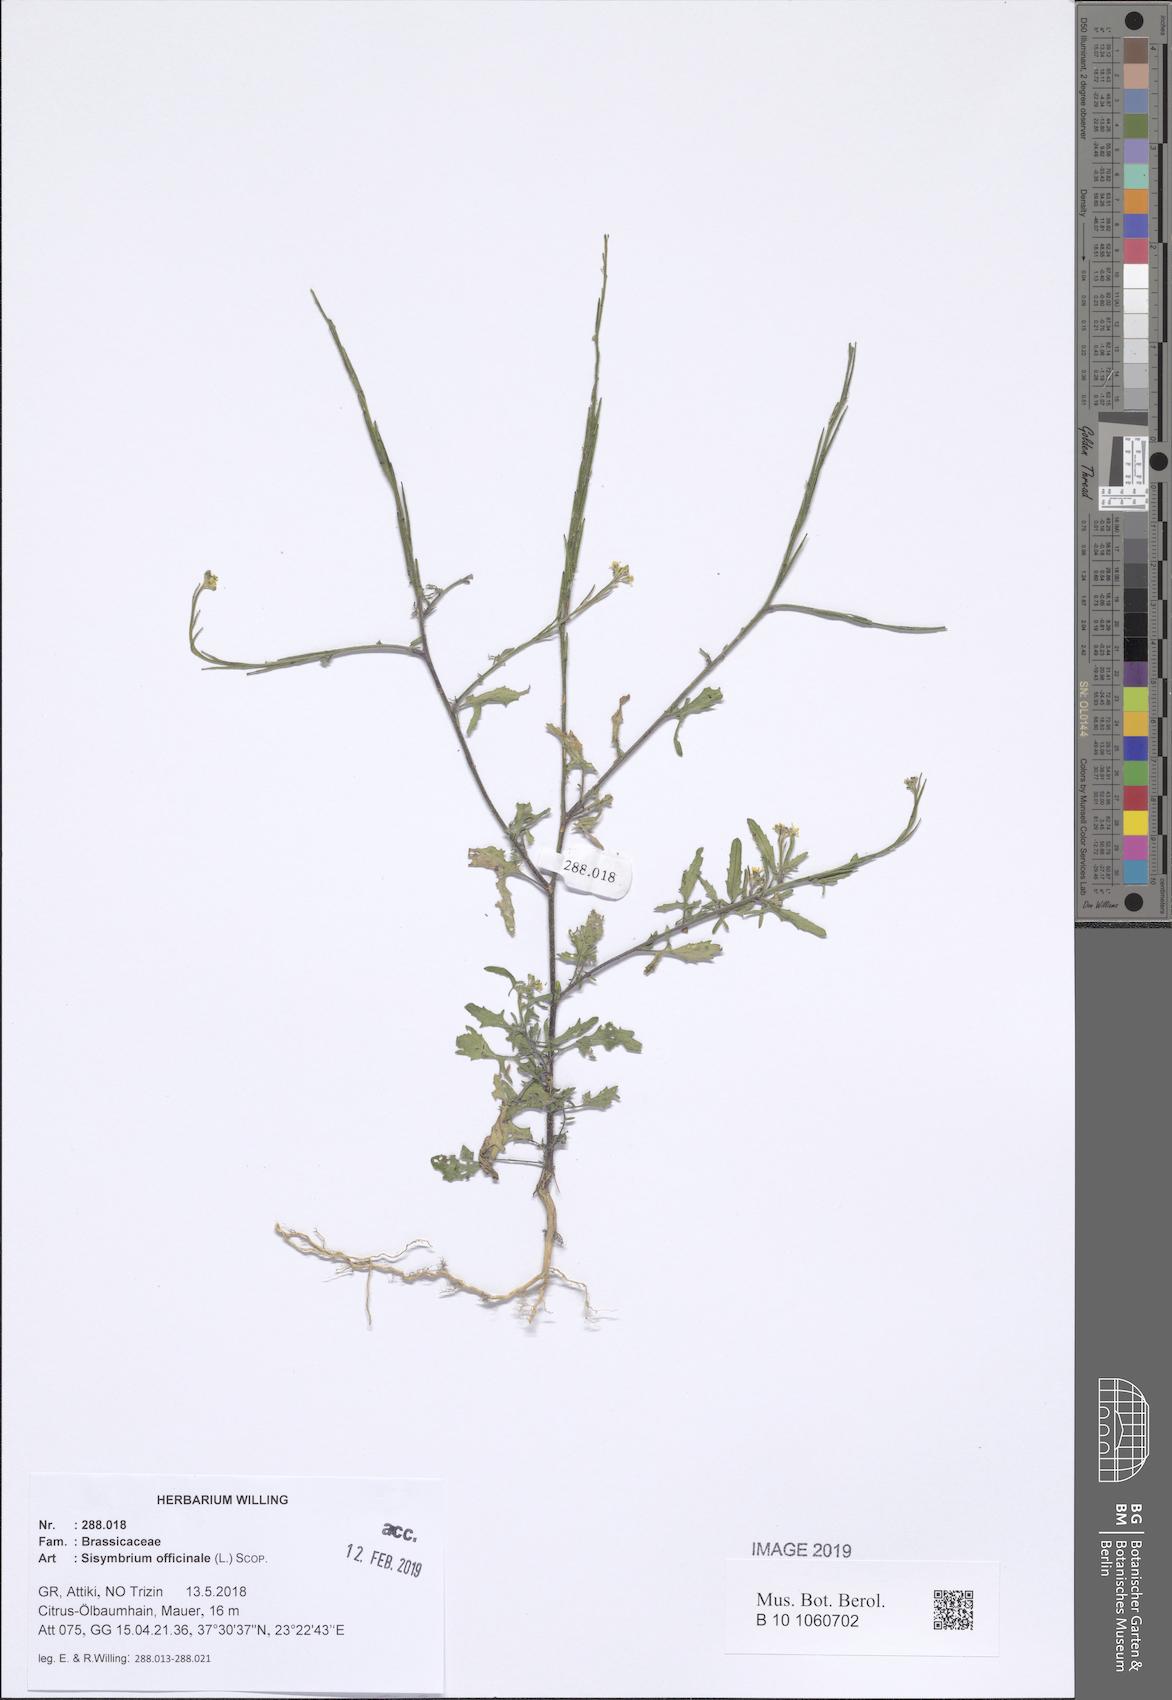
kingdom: Plantae
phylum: Tracheophyta
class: Magnoliopsida
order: Brassicales
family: Brassicaceae
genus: Sisymbrium
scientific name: Sisymbrium officinale
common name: Hedge mustard
